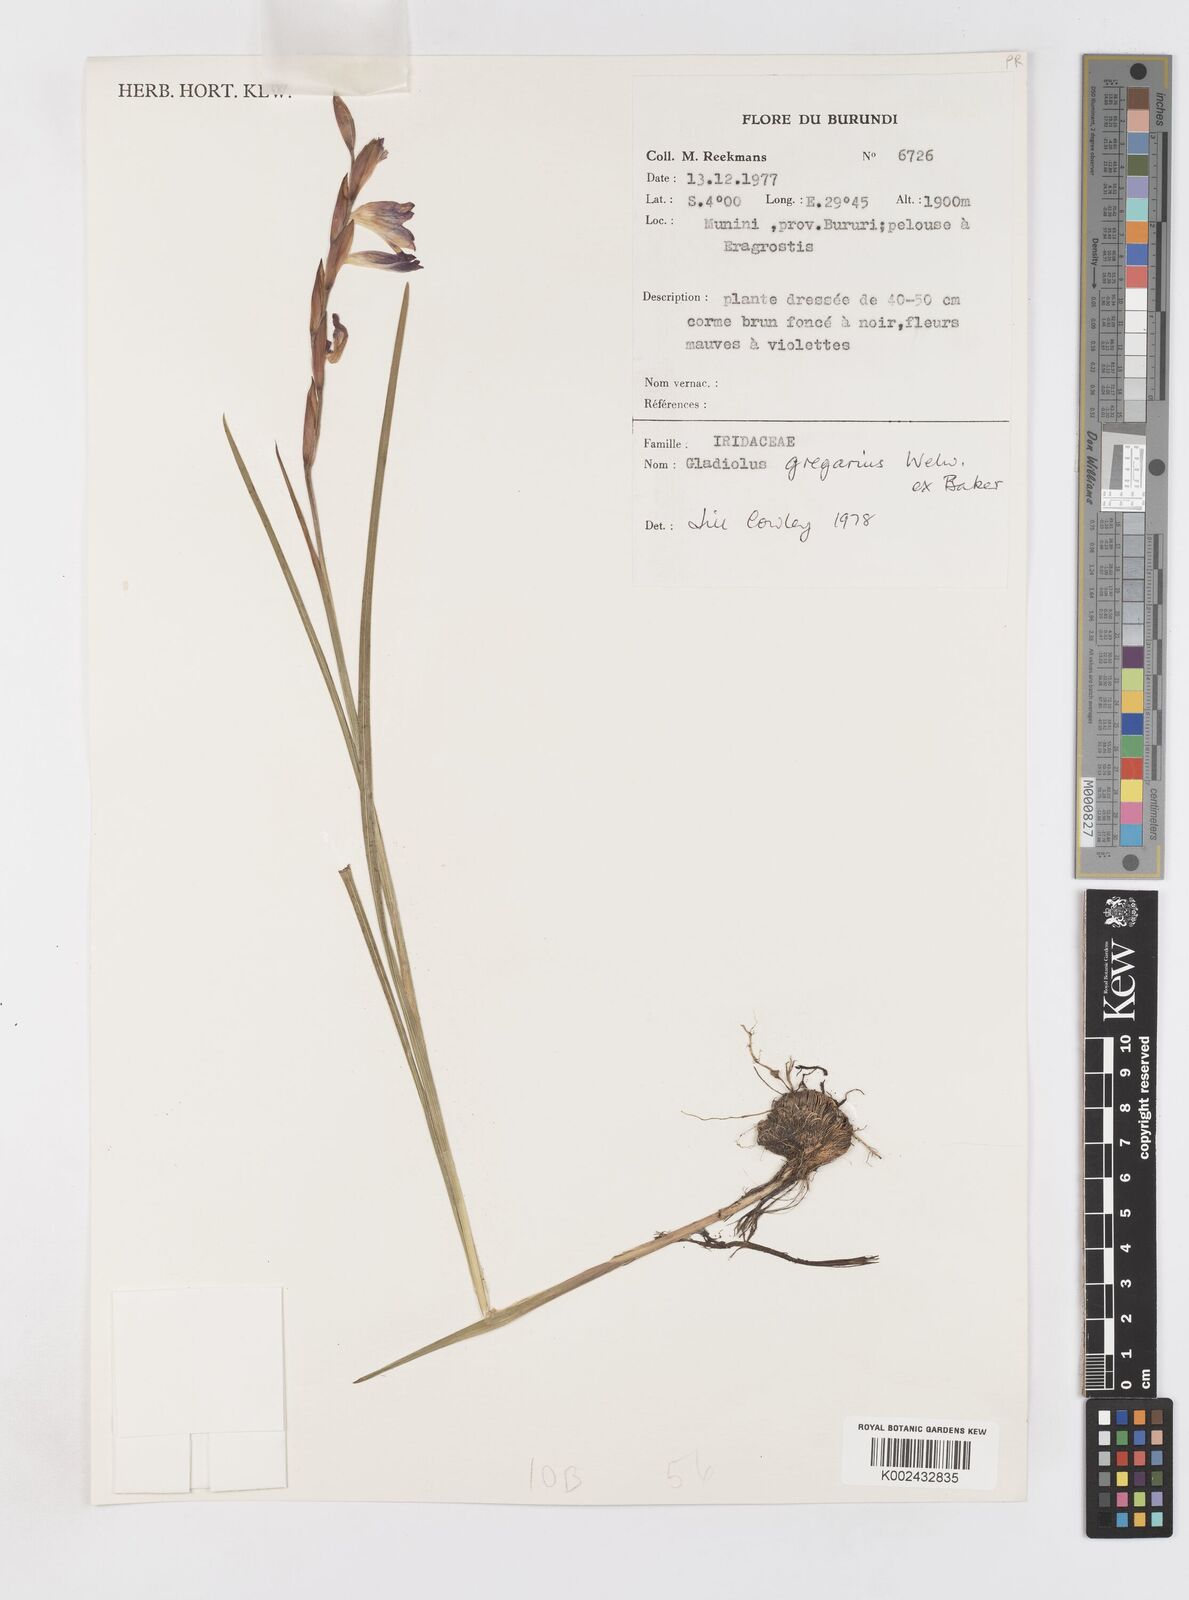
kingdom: Plantae
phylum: Tracheophyta
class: Liliopsida
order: Asparagales
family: Iridaceae
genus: Gladiolus
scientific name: Gladiolus gregarius
